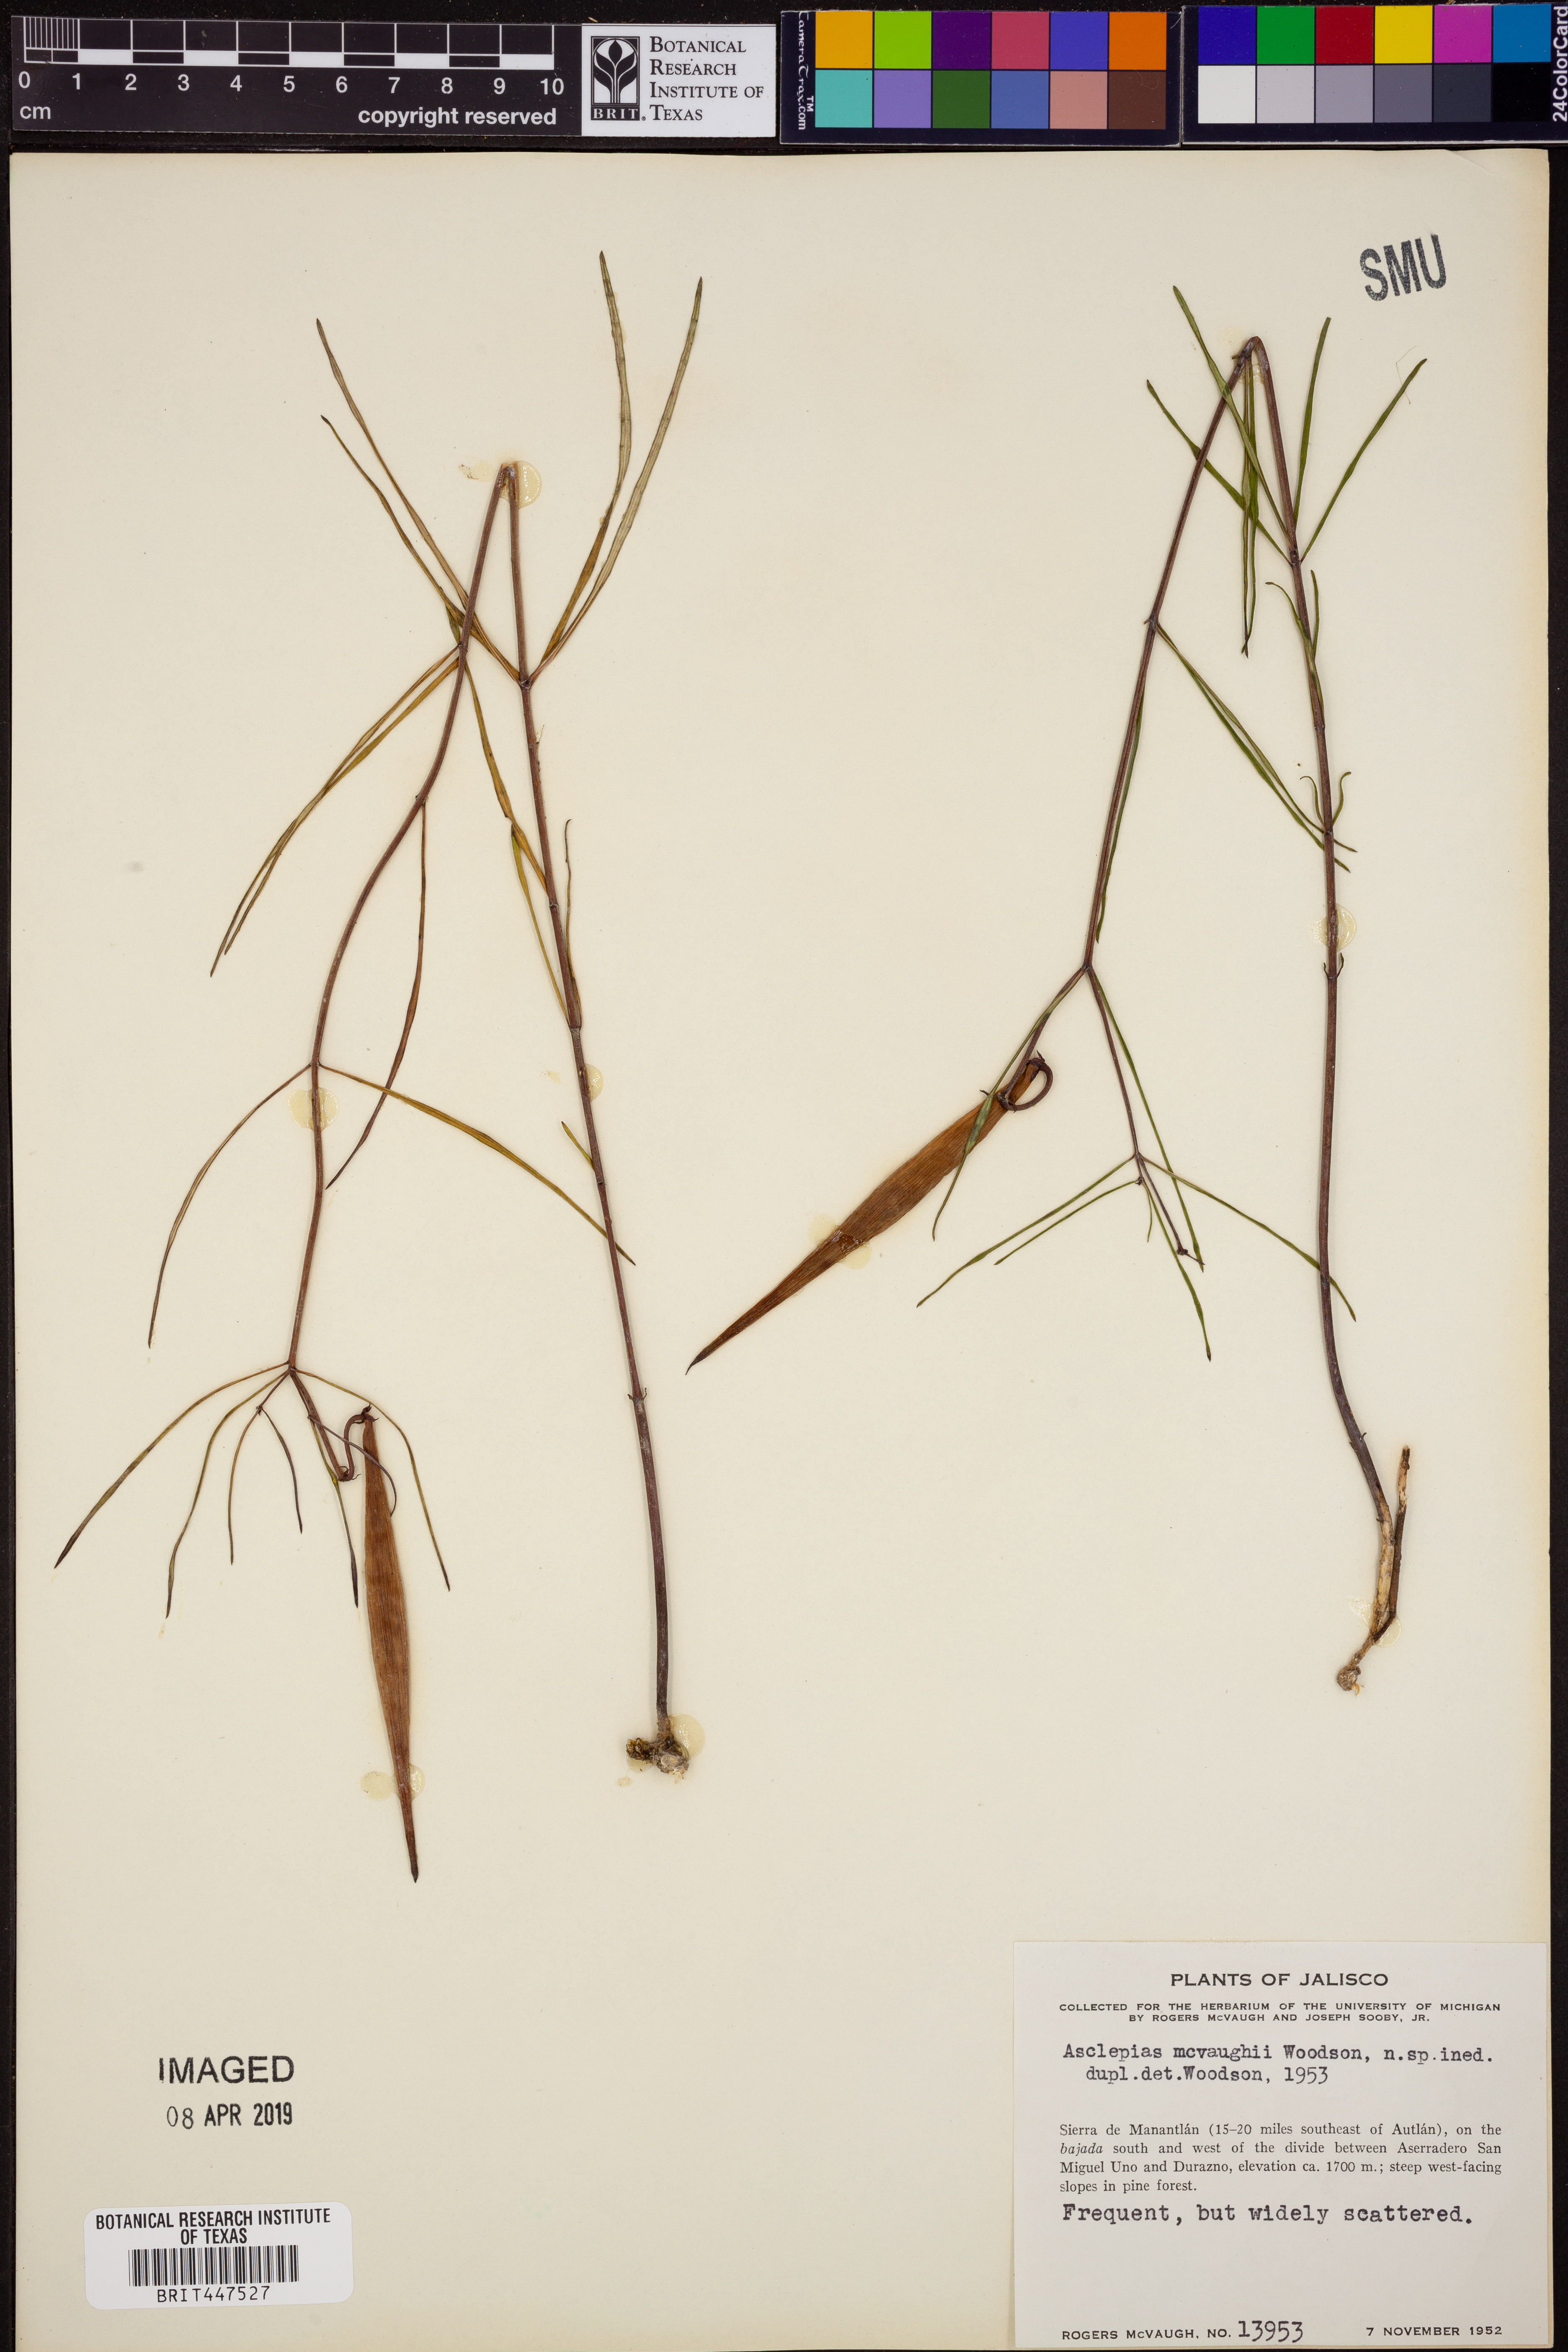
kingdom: Plantae
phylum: Tracheophyta
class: Magnoliopsida
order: Gentianales
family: Apocynaceae
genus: Asclepias
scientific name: Asclepias mcvaughii
